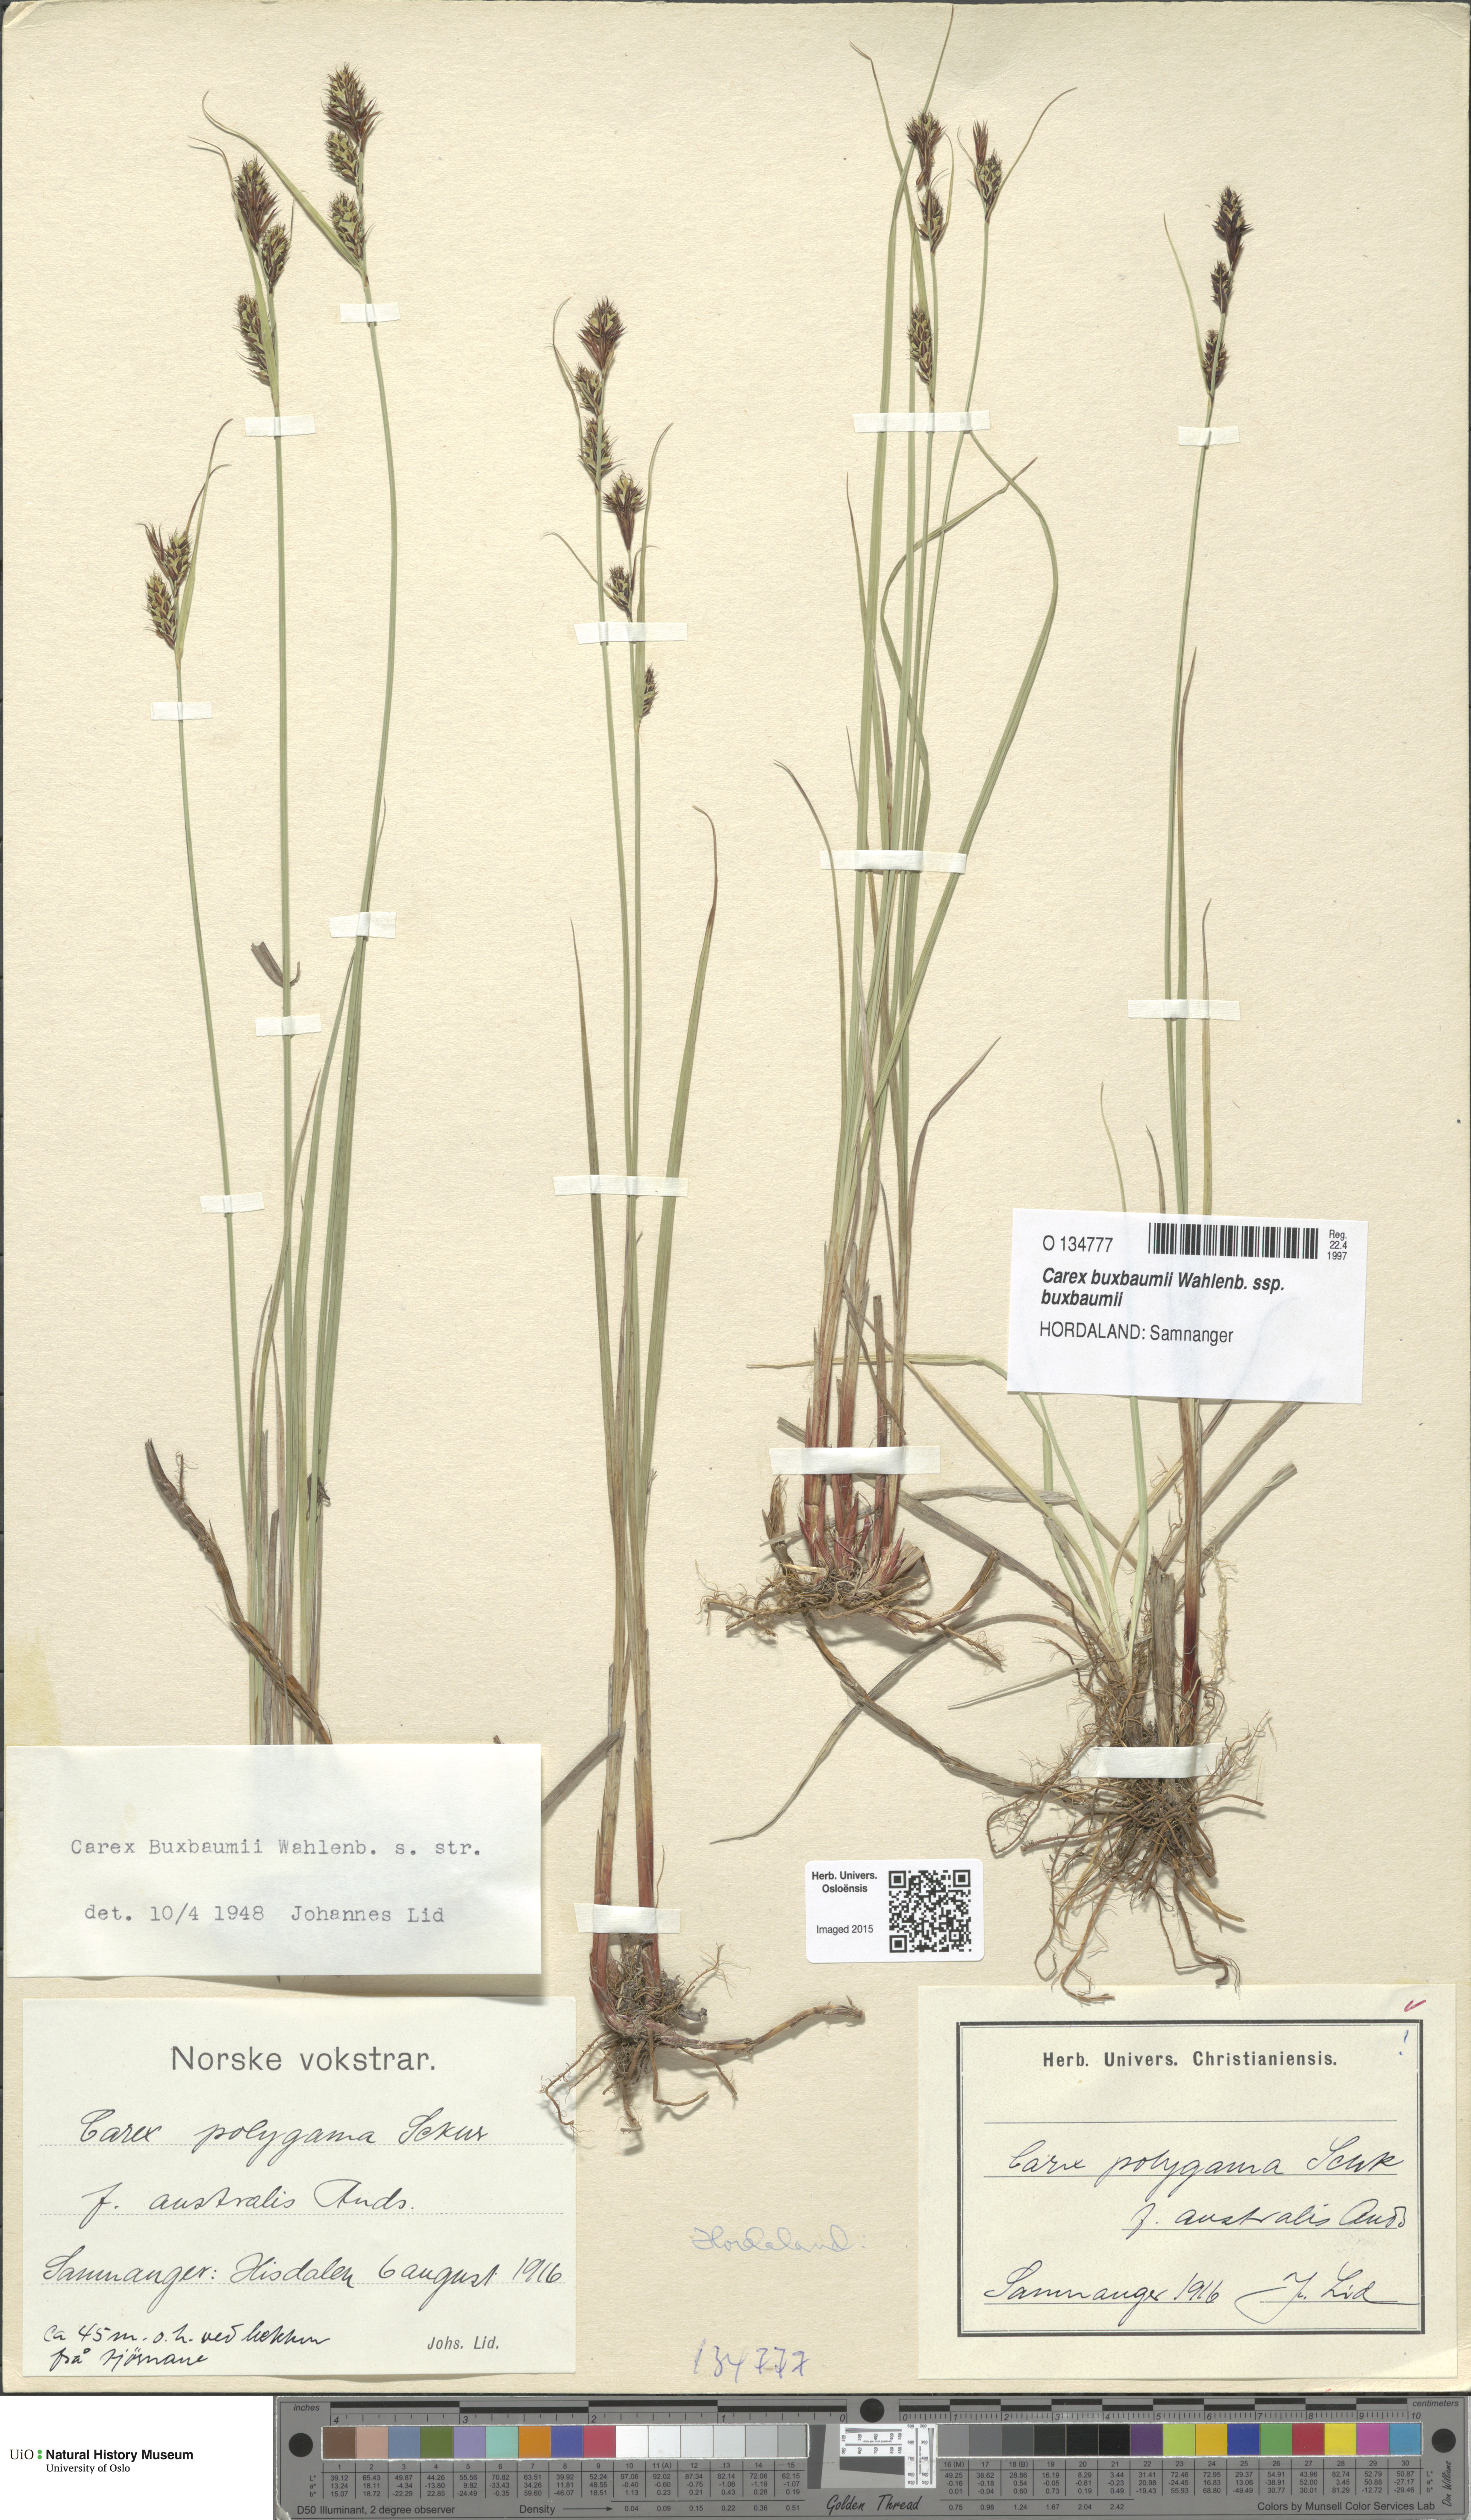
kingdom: Plantae
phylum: Tracheophyta
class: Liliopsida
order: Poales
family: Cyperaceae
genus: Carex
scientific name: Carex buxbaumii
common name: Club sedge
